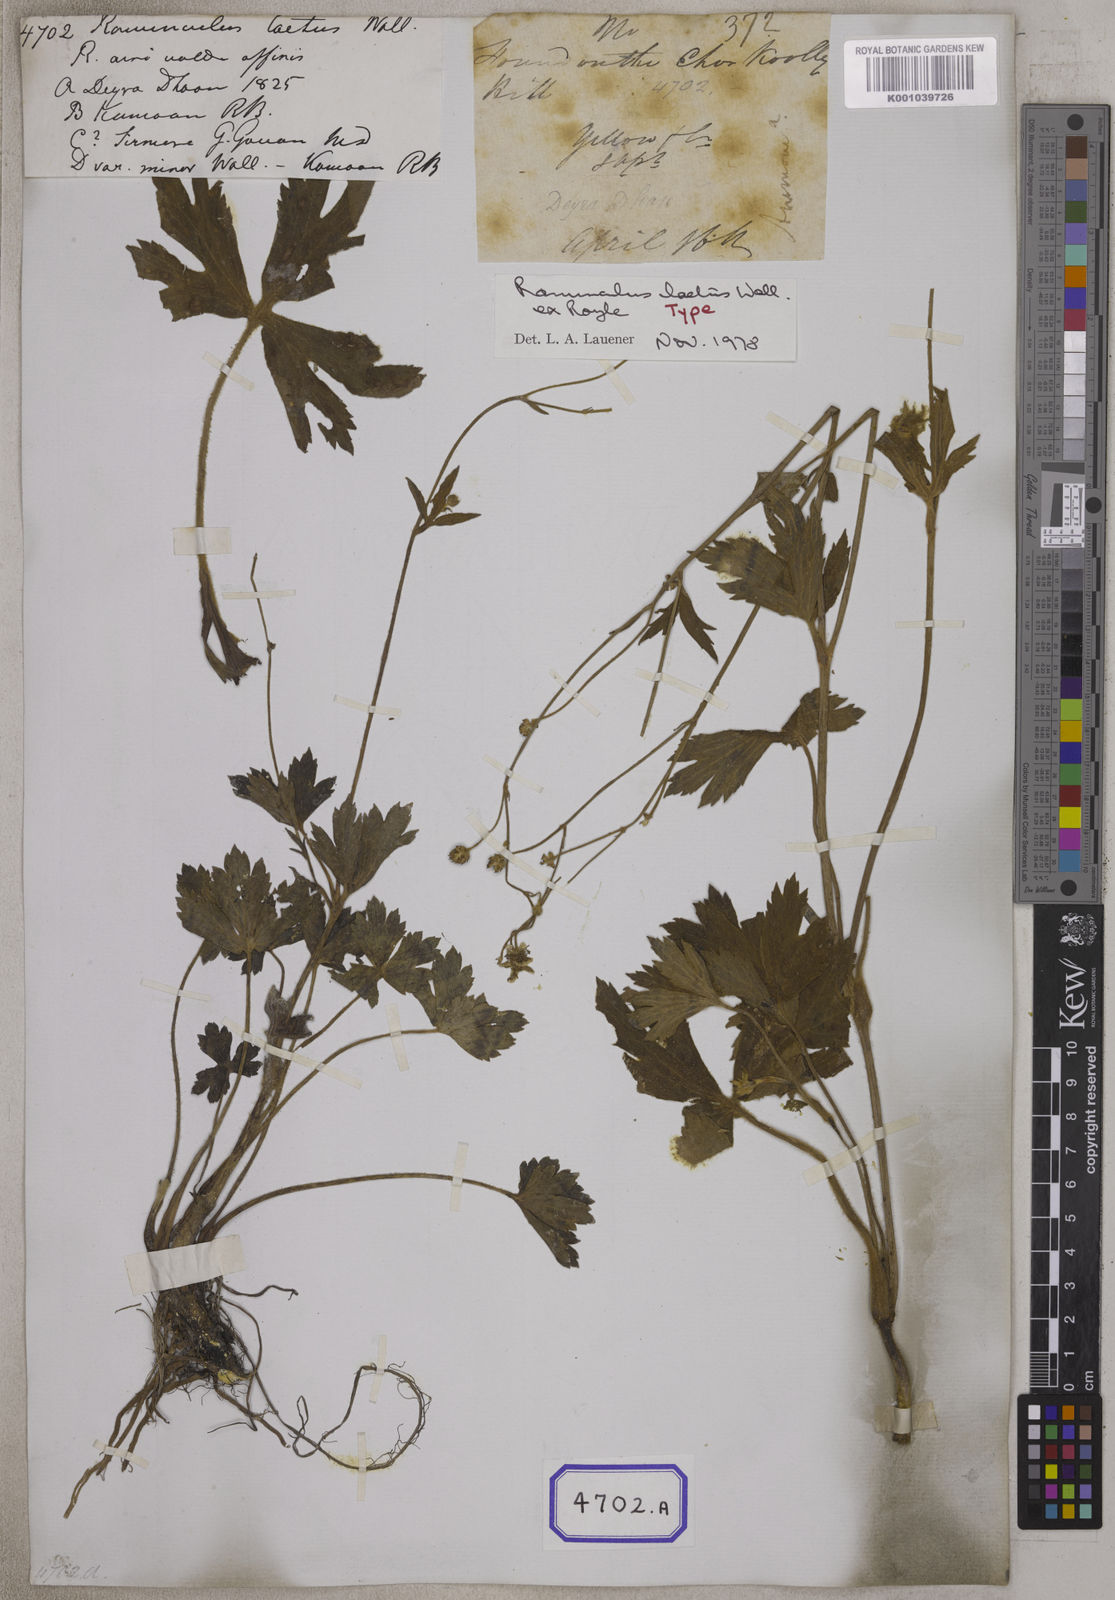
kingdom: Plantae
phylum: Tracheophyta
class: Magnoliopsida
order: Ranunculales
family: Ranunculaceae
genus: Ranunculus
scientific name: Ranunculus
